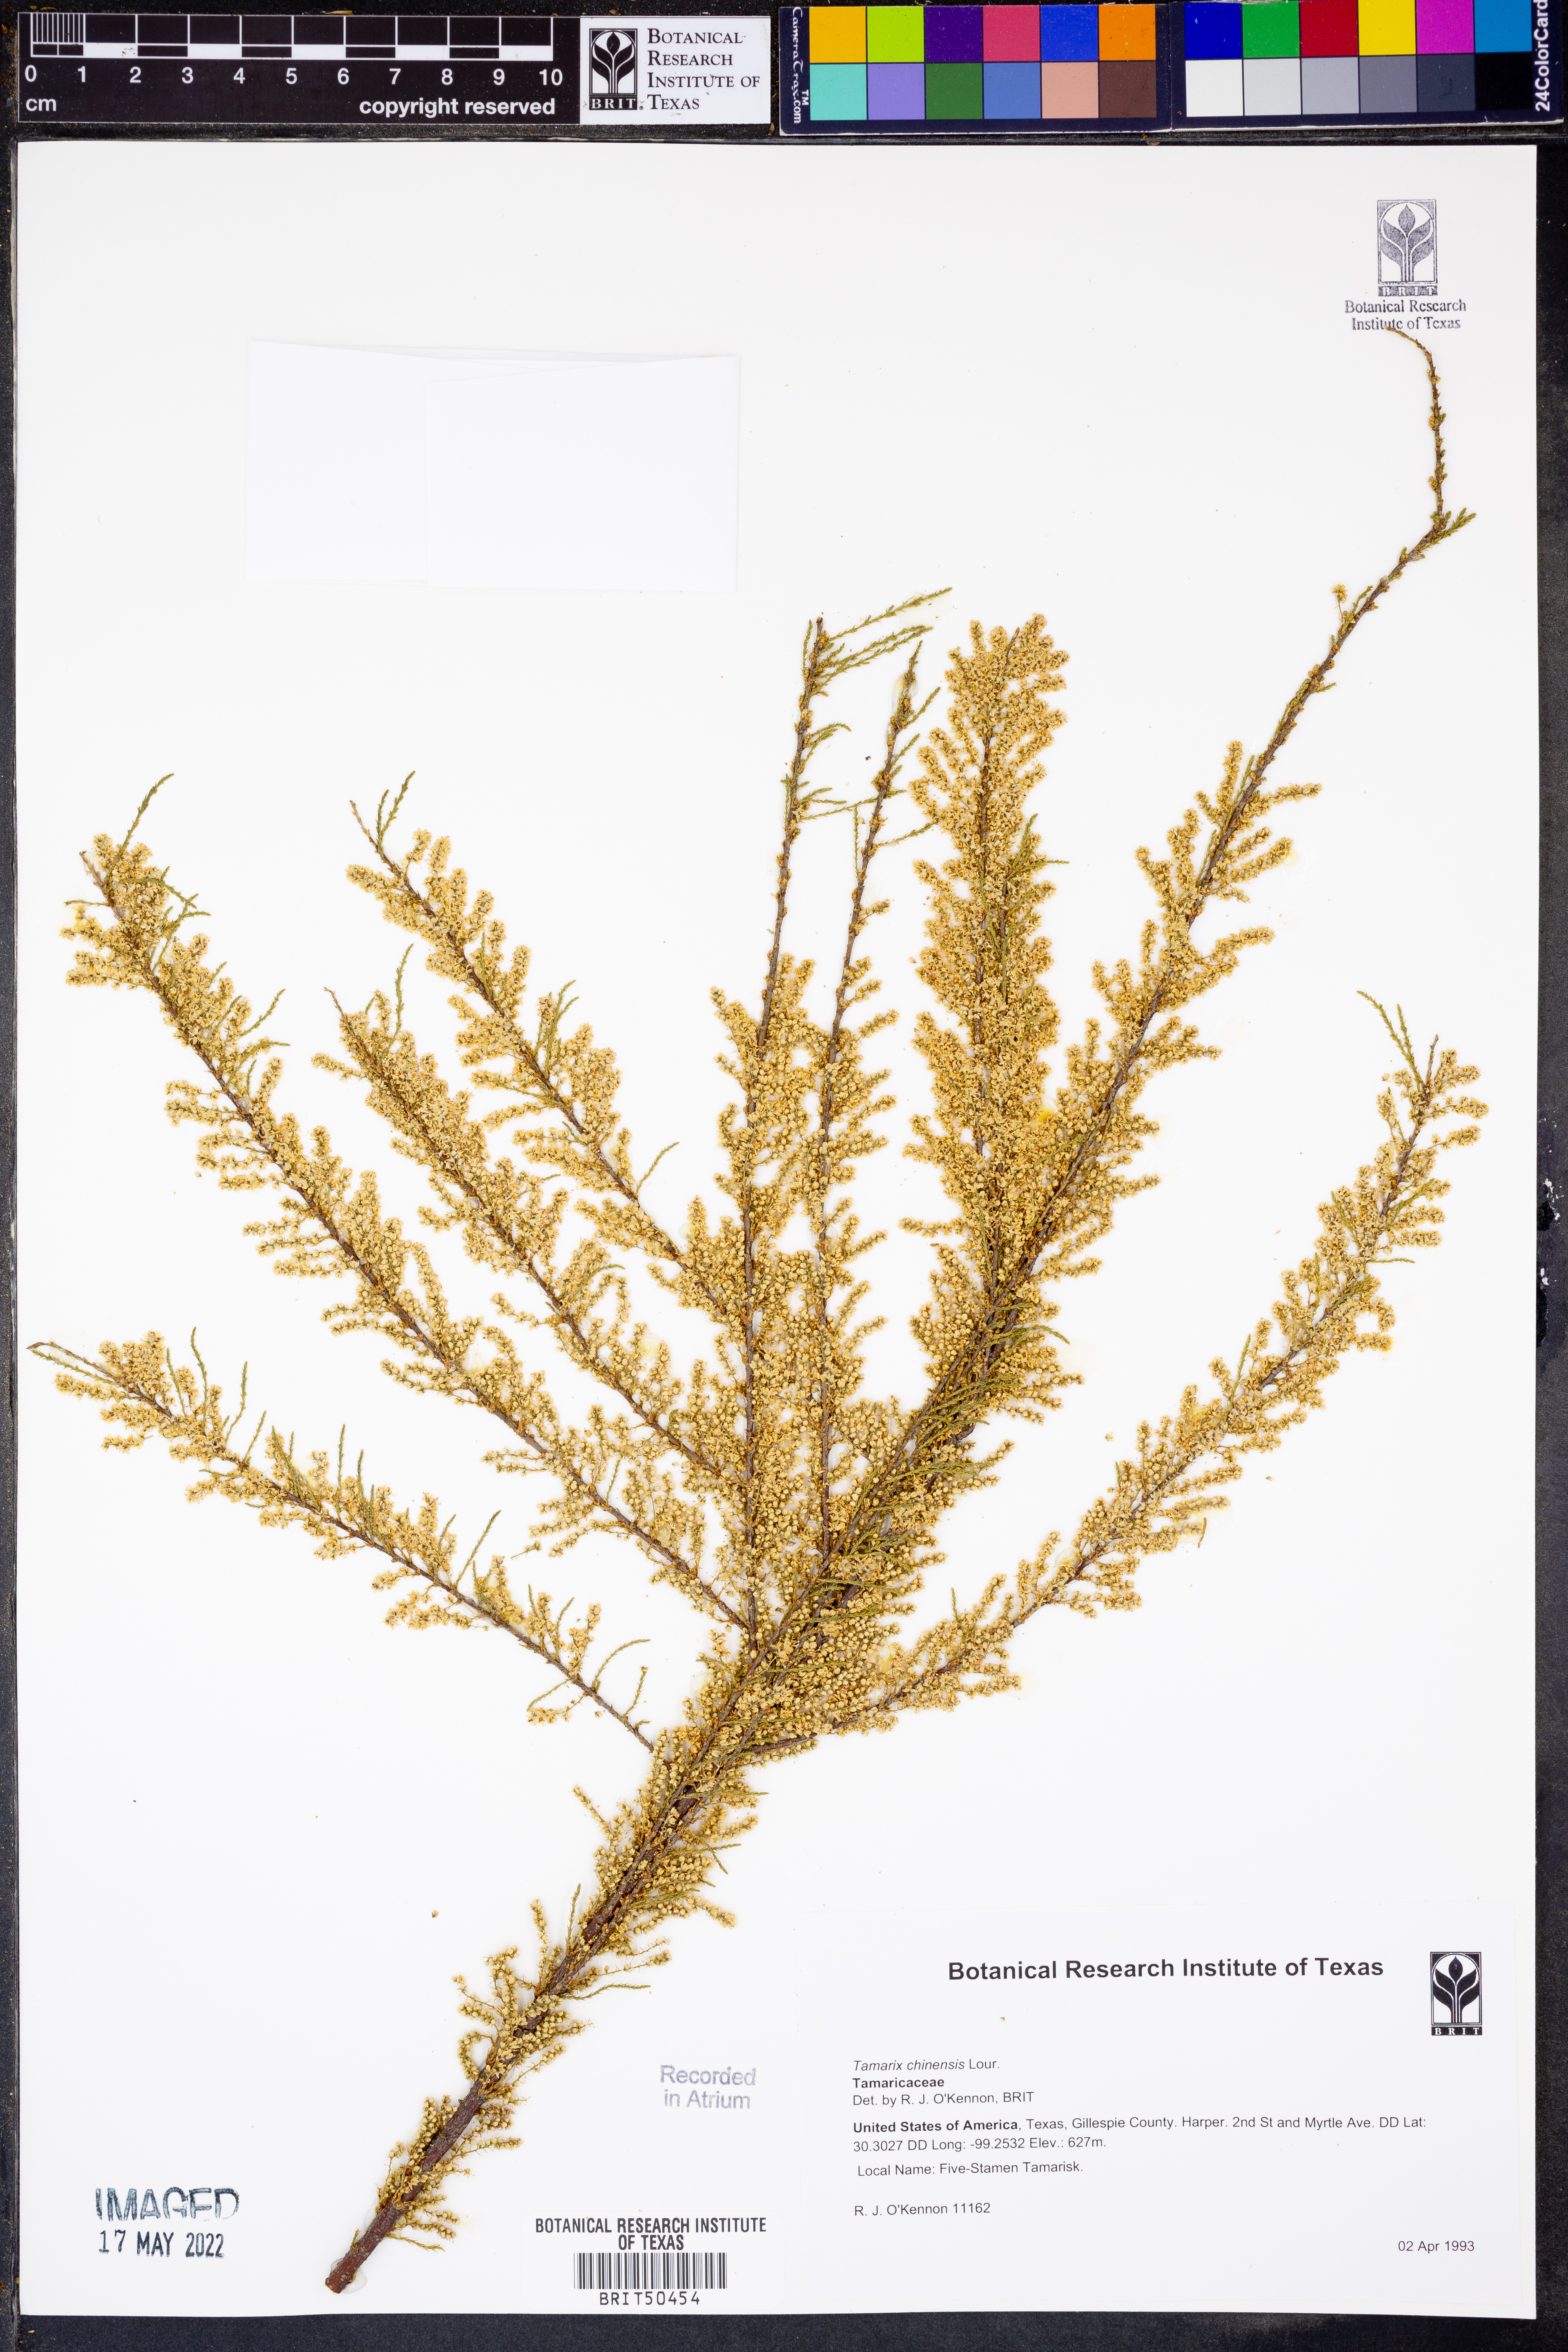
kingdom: Plantae
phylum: Tracheophyta
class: Magnoliopsida
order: Caryophyllales
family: Tamaricaceae
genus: Tamarix
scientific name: Tamarix chinensis
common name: Chinese tamarisk
